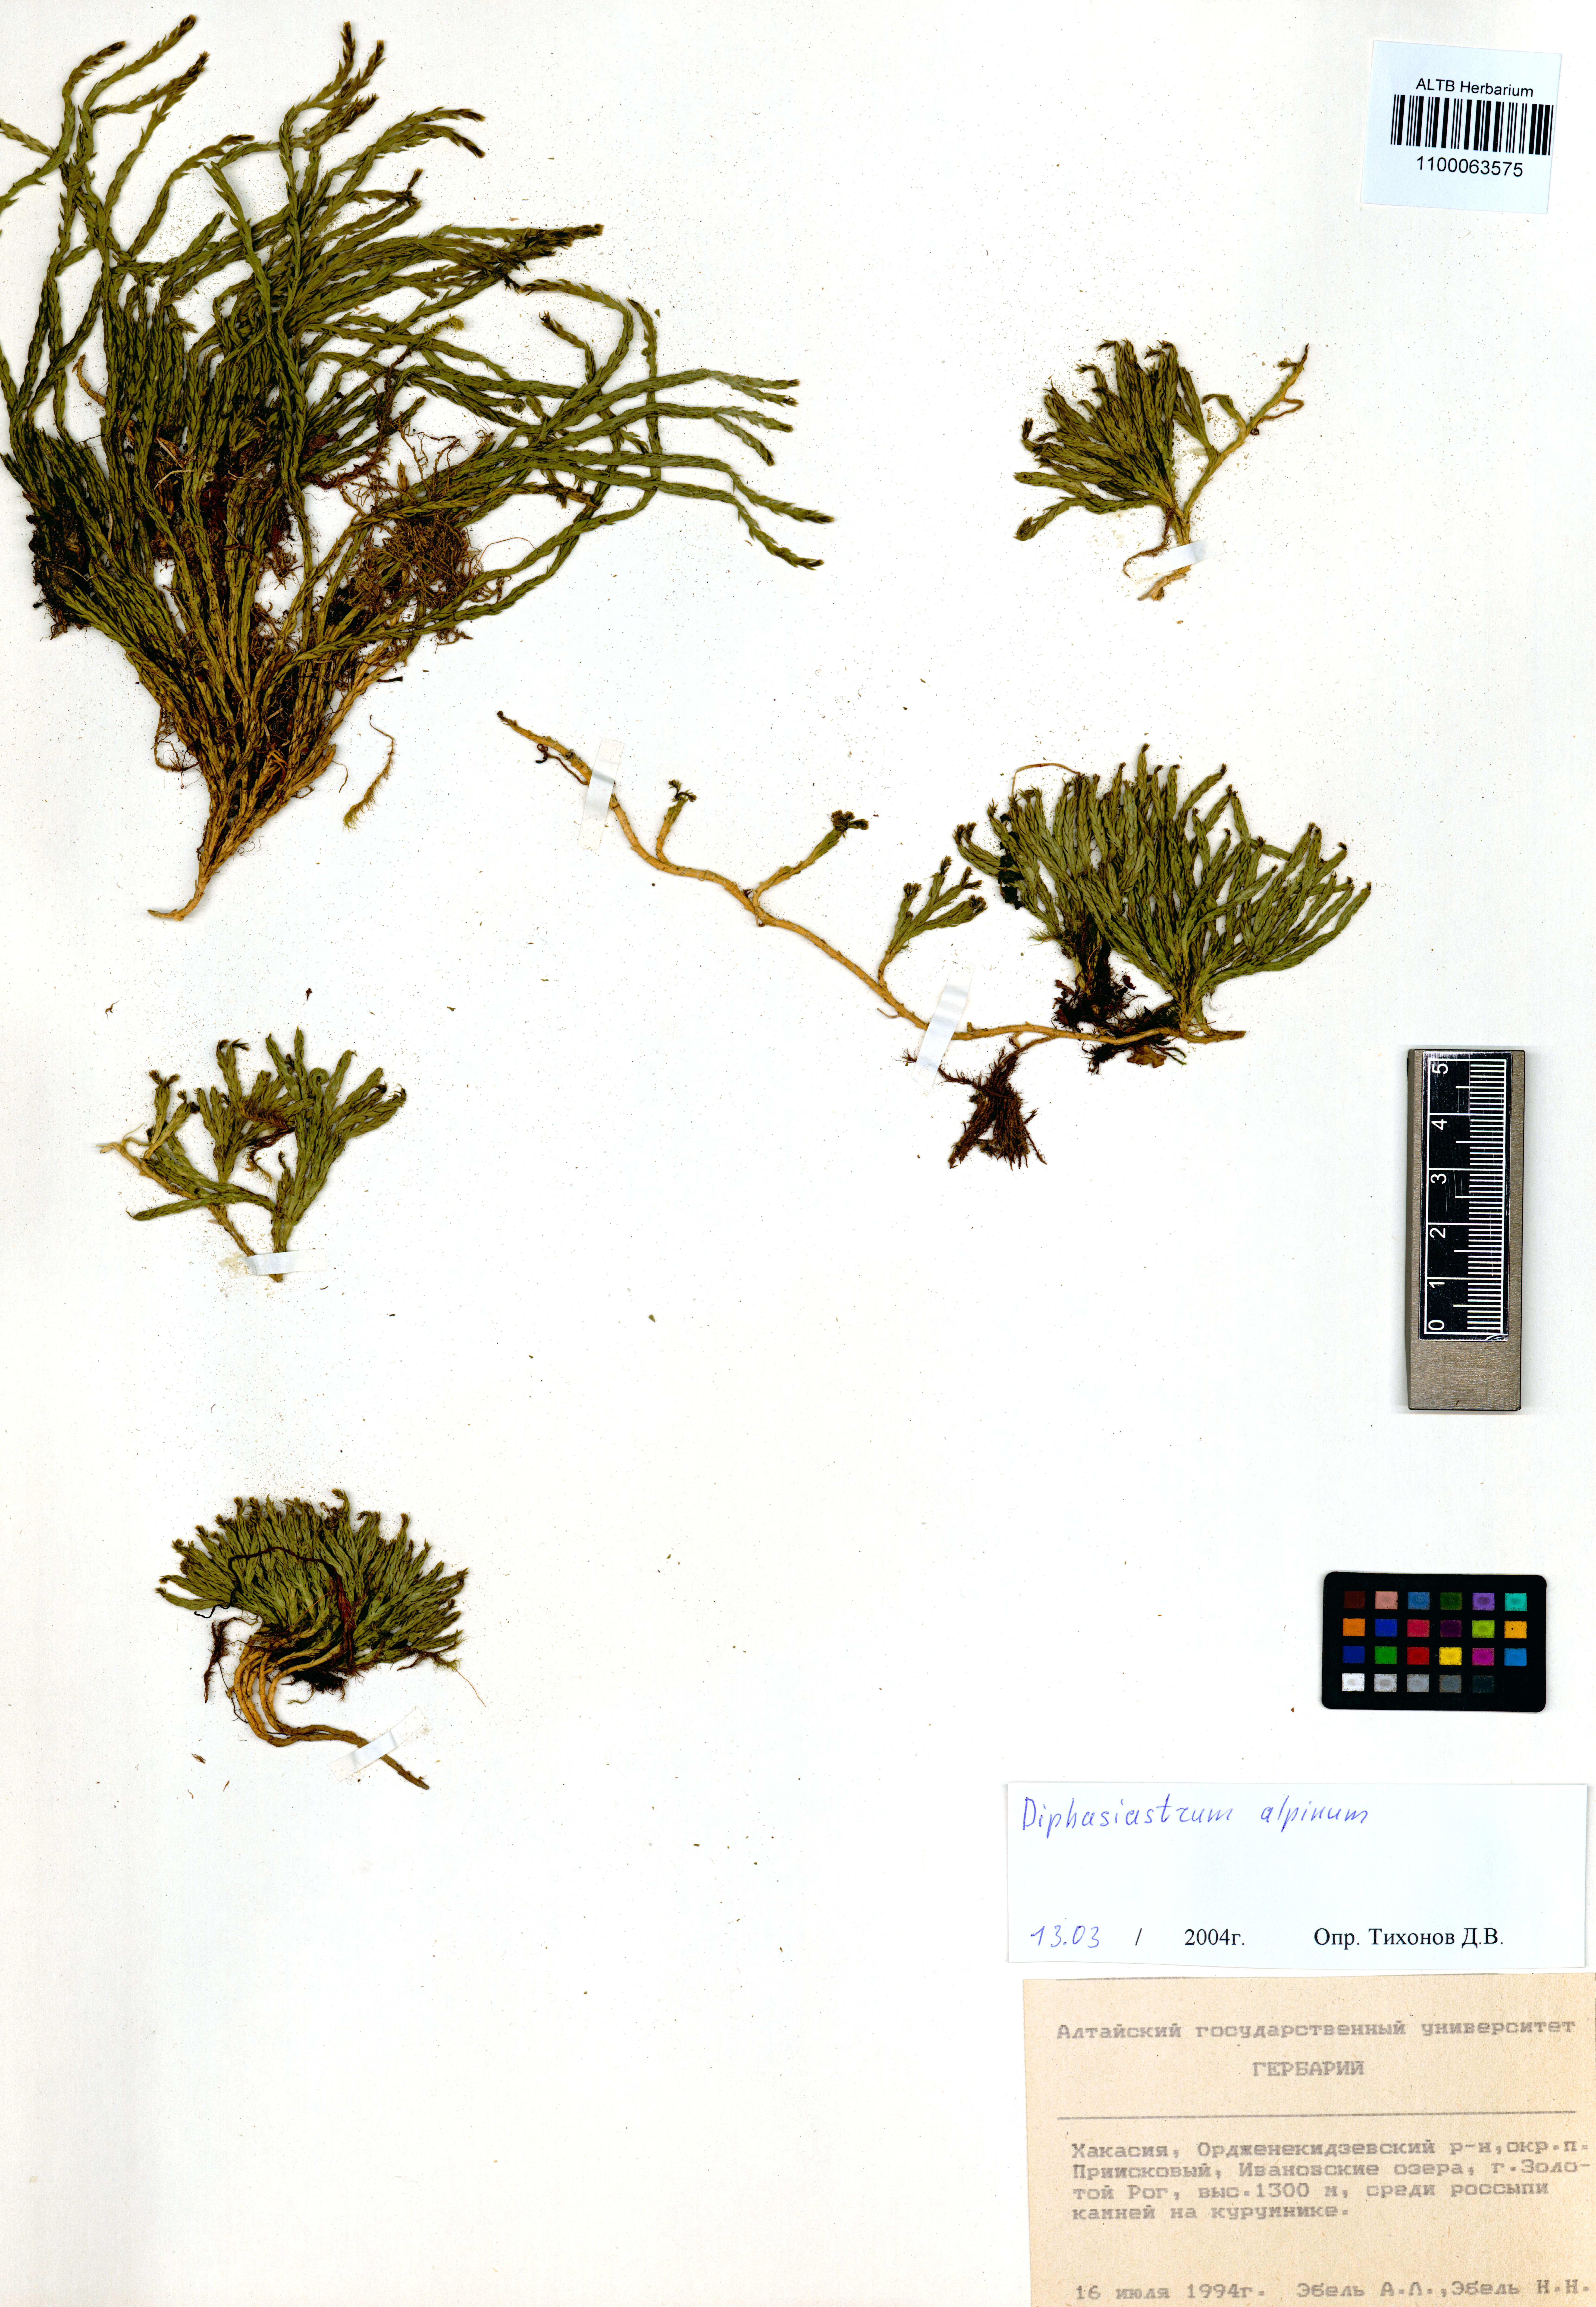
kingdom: Plantae
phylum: Tracheophyta
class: Lycopodiopsida
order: Lycopodiales
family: Lycopodiaceae
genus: Diphasiastrum
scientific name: Diphasiastrum alpinum
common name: Alpine clubmoss
